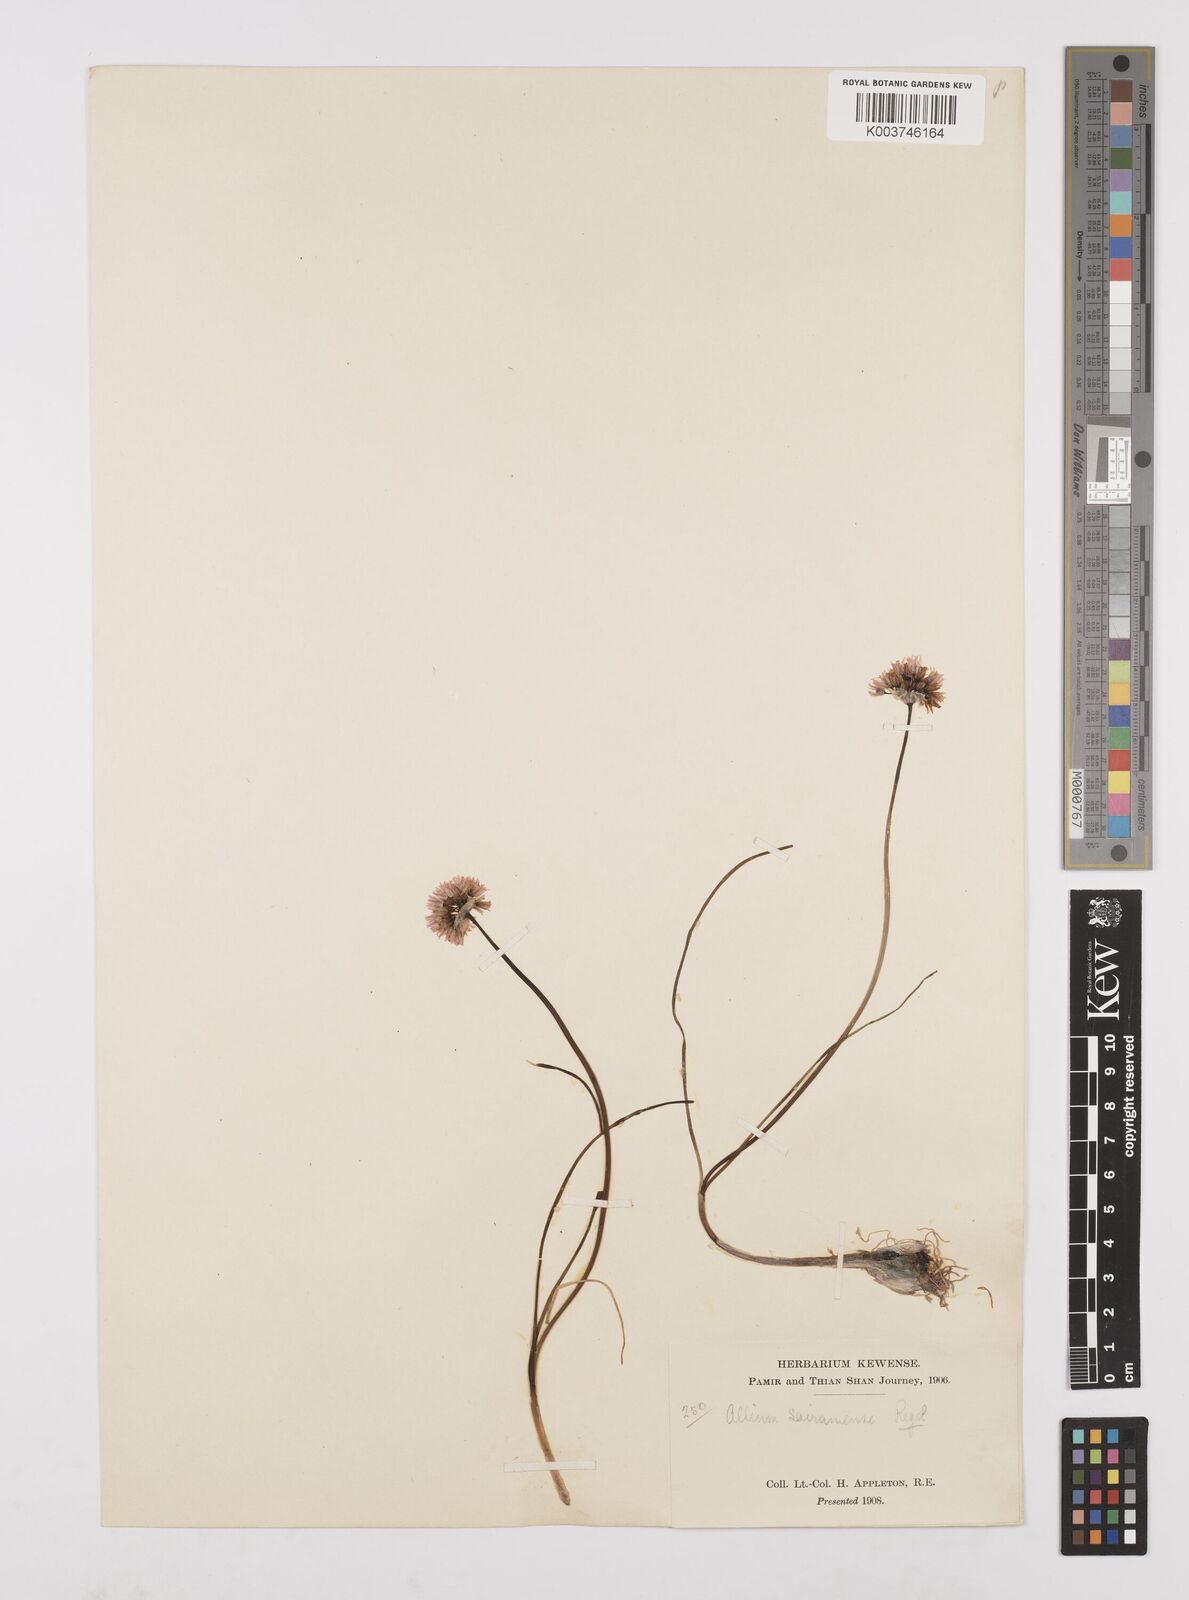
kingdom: Plantae
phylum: Tracheophyta
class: Liliopsida
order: Asparagales
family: Amaryllidaceae
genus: Allium
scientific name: Allium schoenoprasoides
